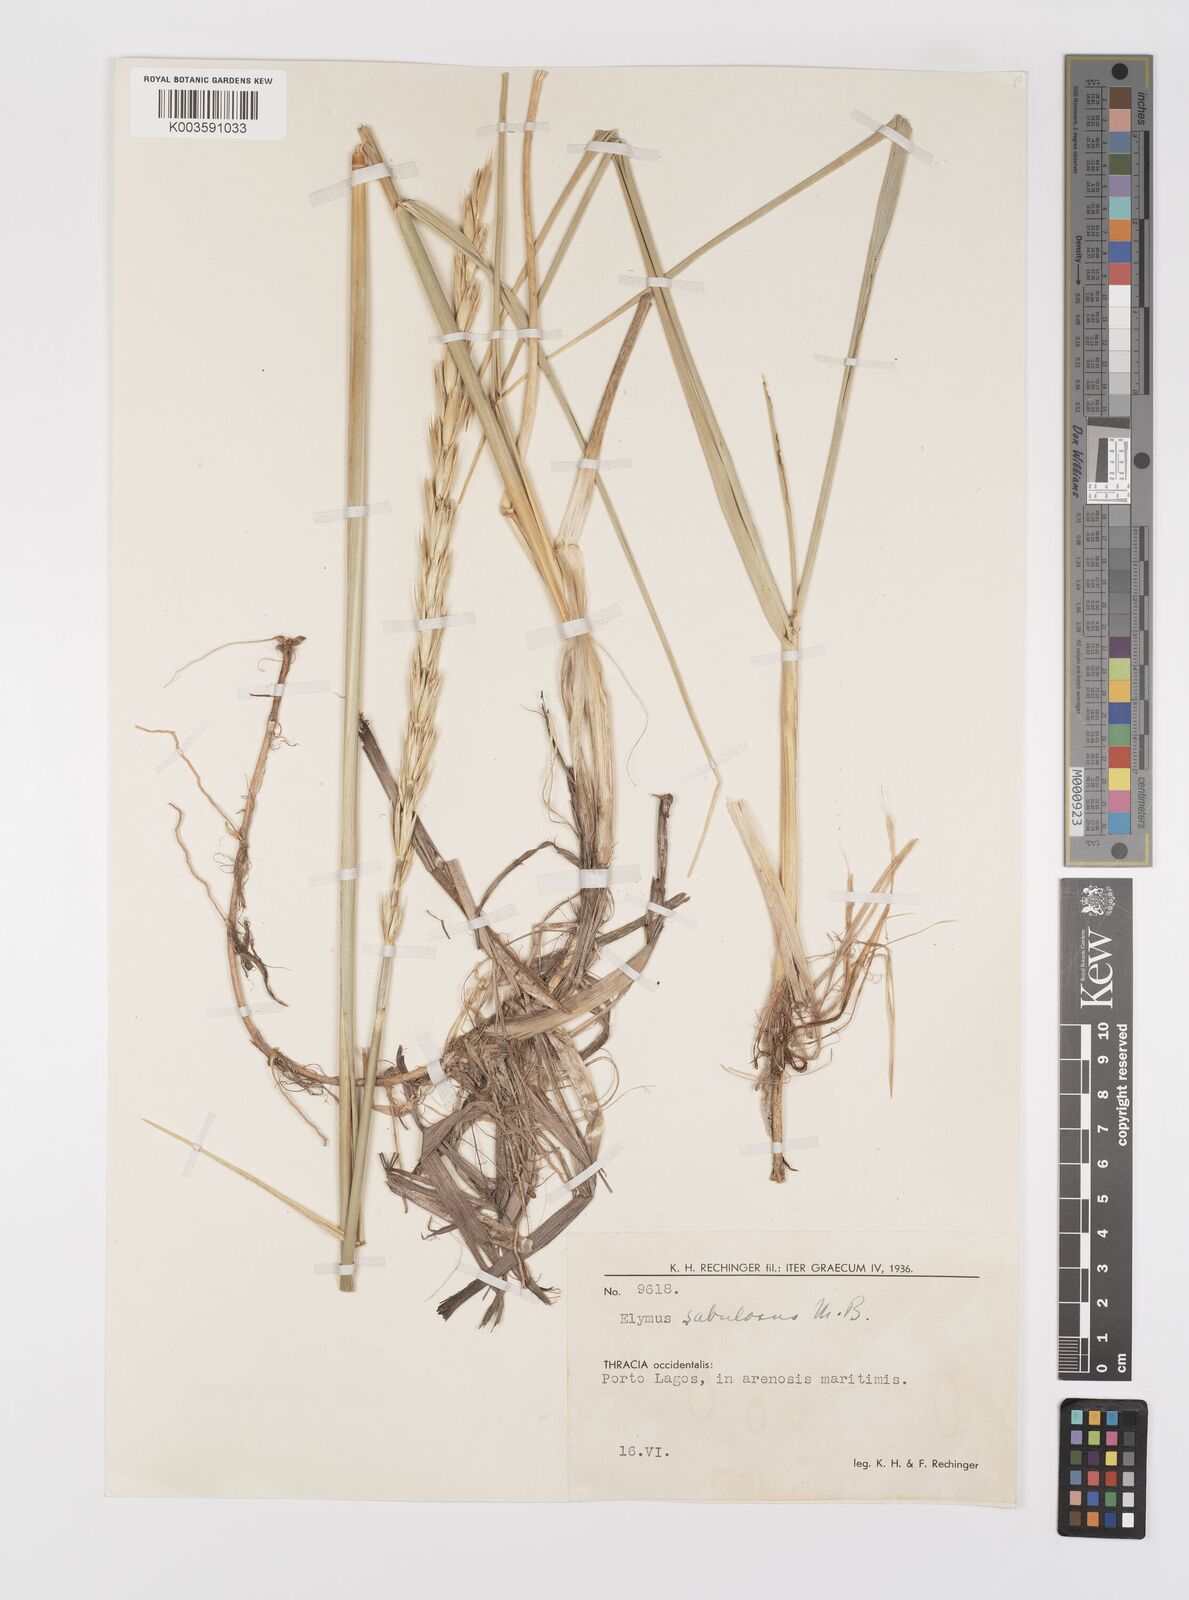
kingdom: Plantae
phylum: Tracheophyta
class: Liliopsida
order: Poales
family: Poaceae
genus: Leymus
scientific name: Leymus racemosus
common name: Mammoth wildrye
